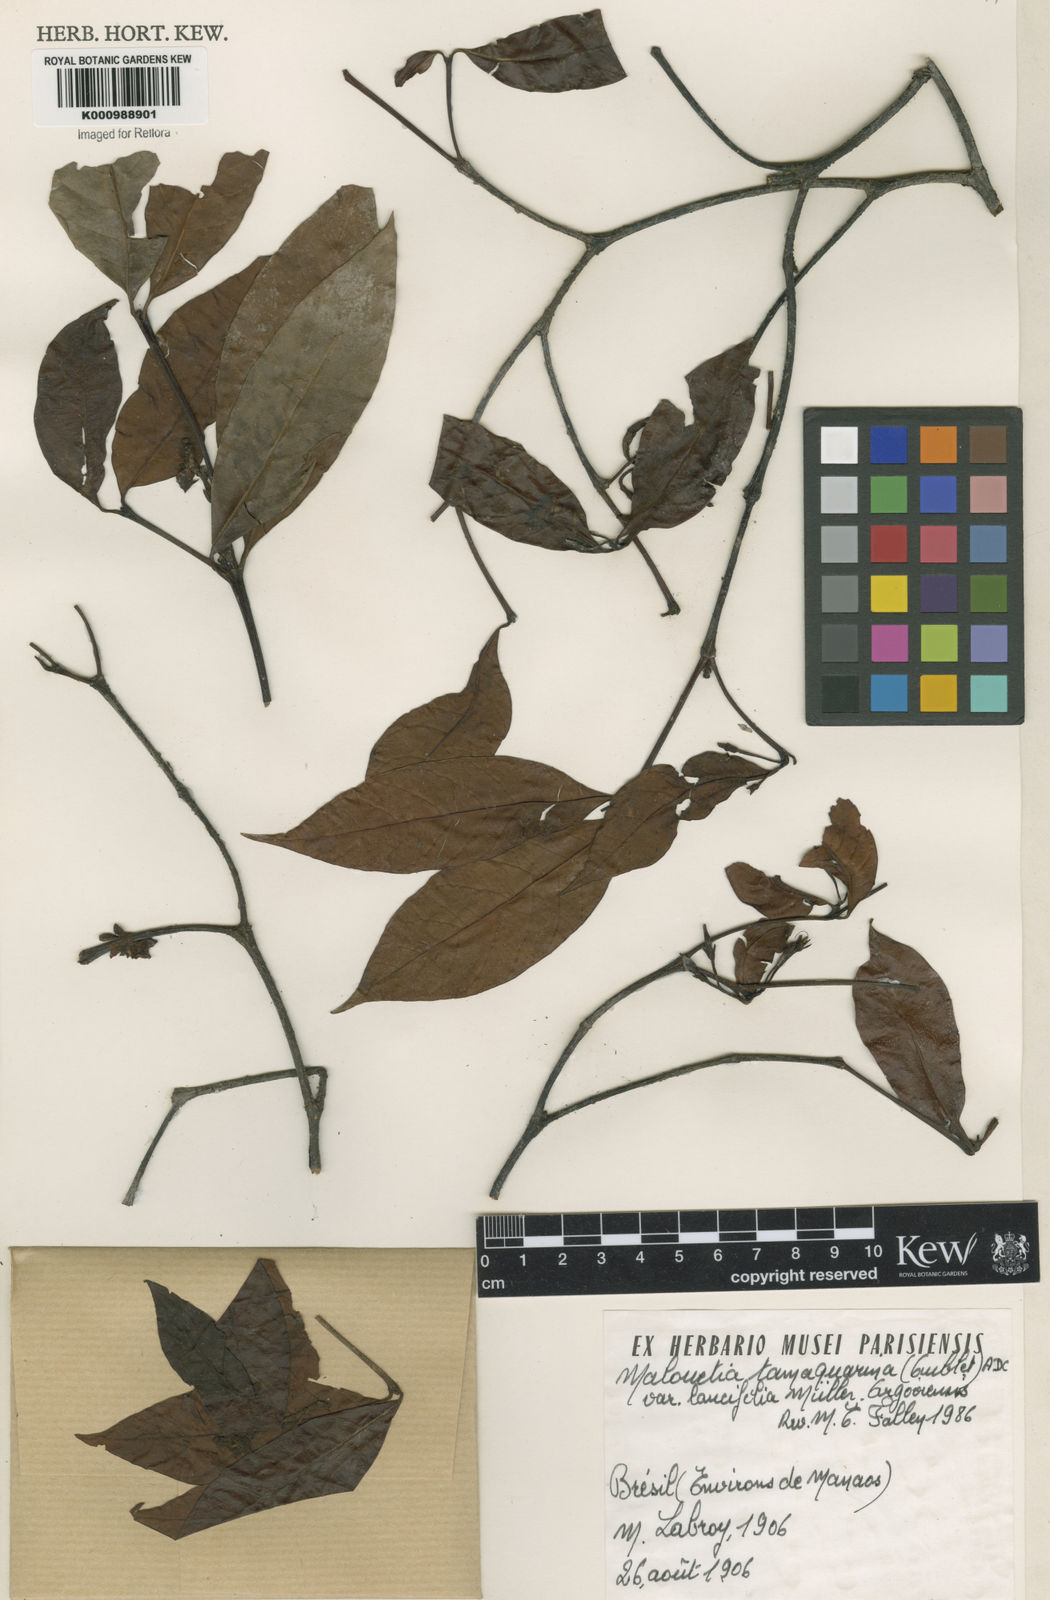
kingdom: Plantae
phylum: Tracheophyta
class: Magnoliopsida
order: Gentianales
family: Apocynaceae
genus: Malouetia
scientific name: Malouetia tamaquarina
